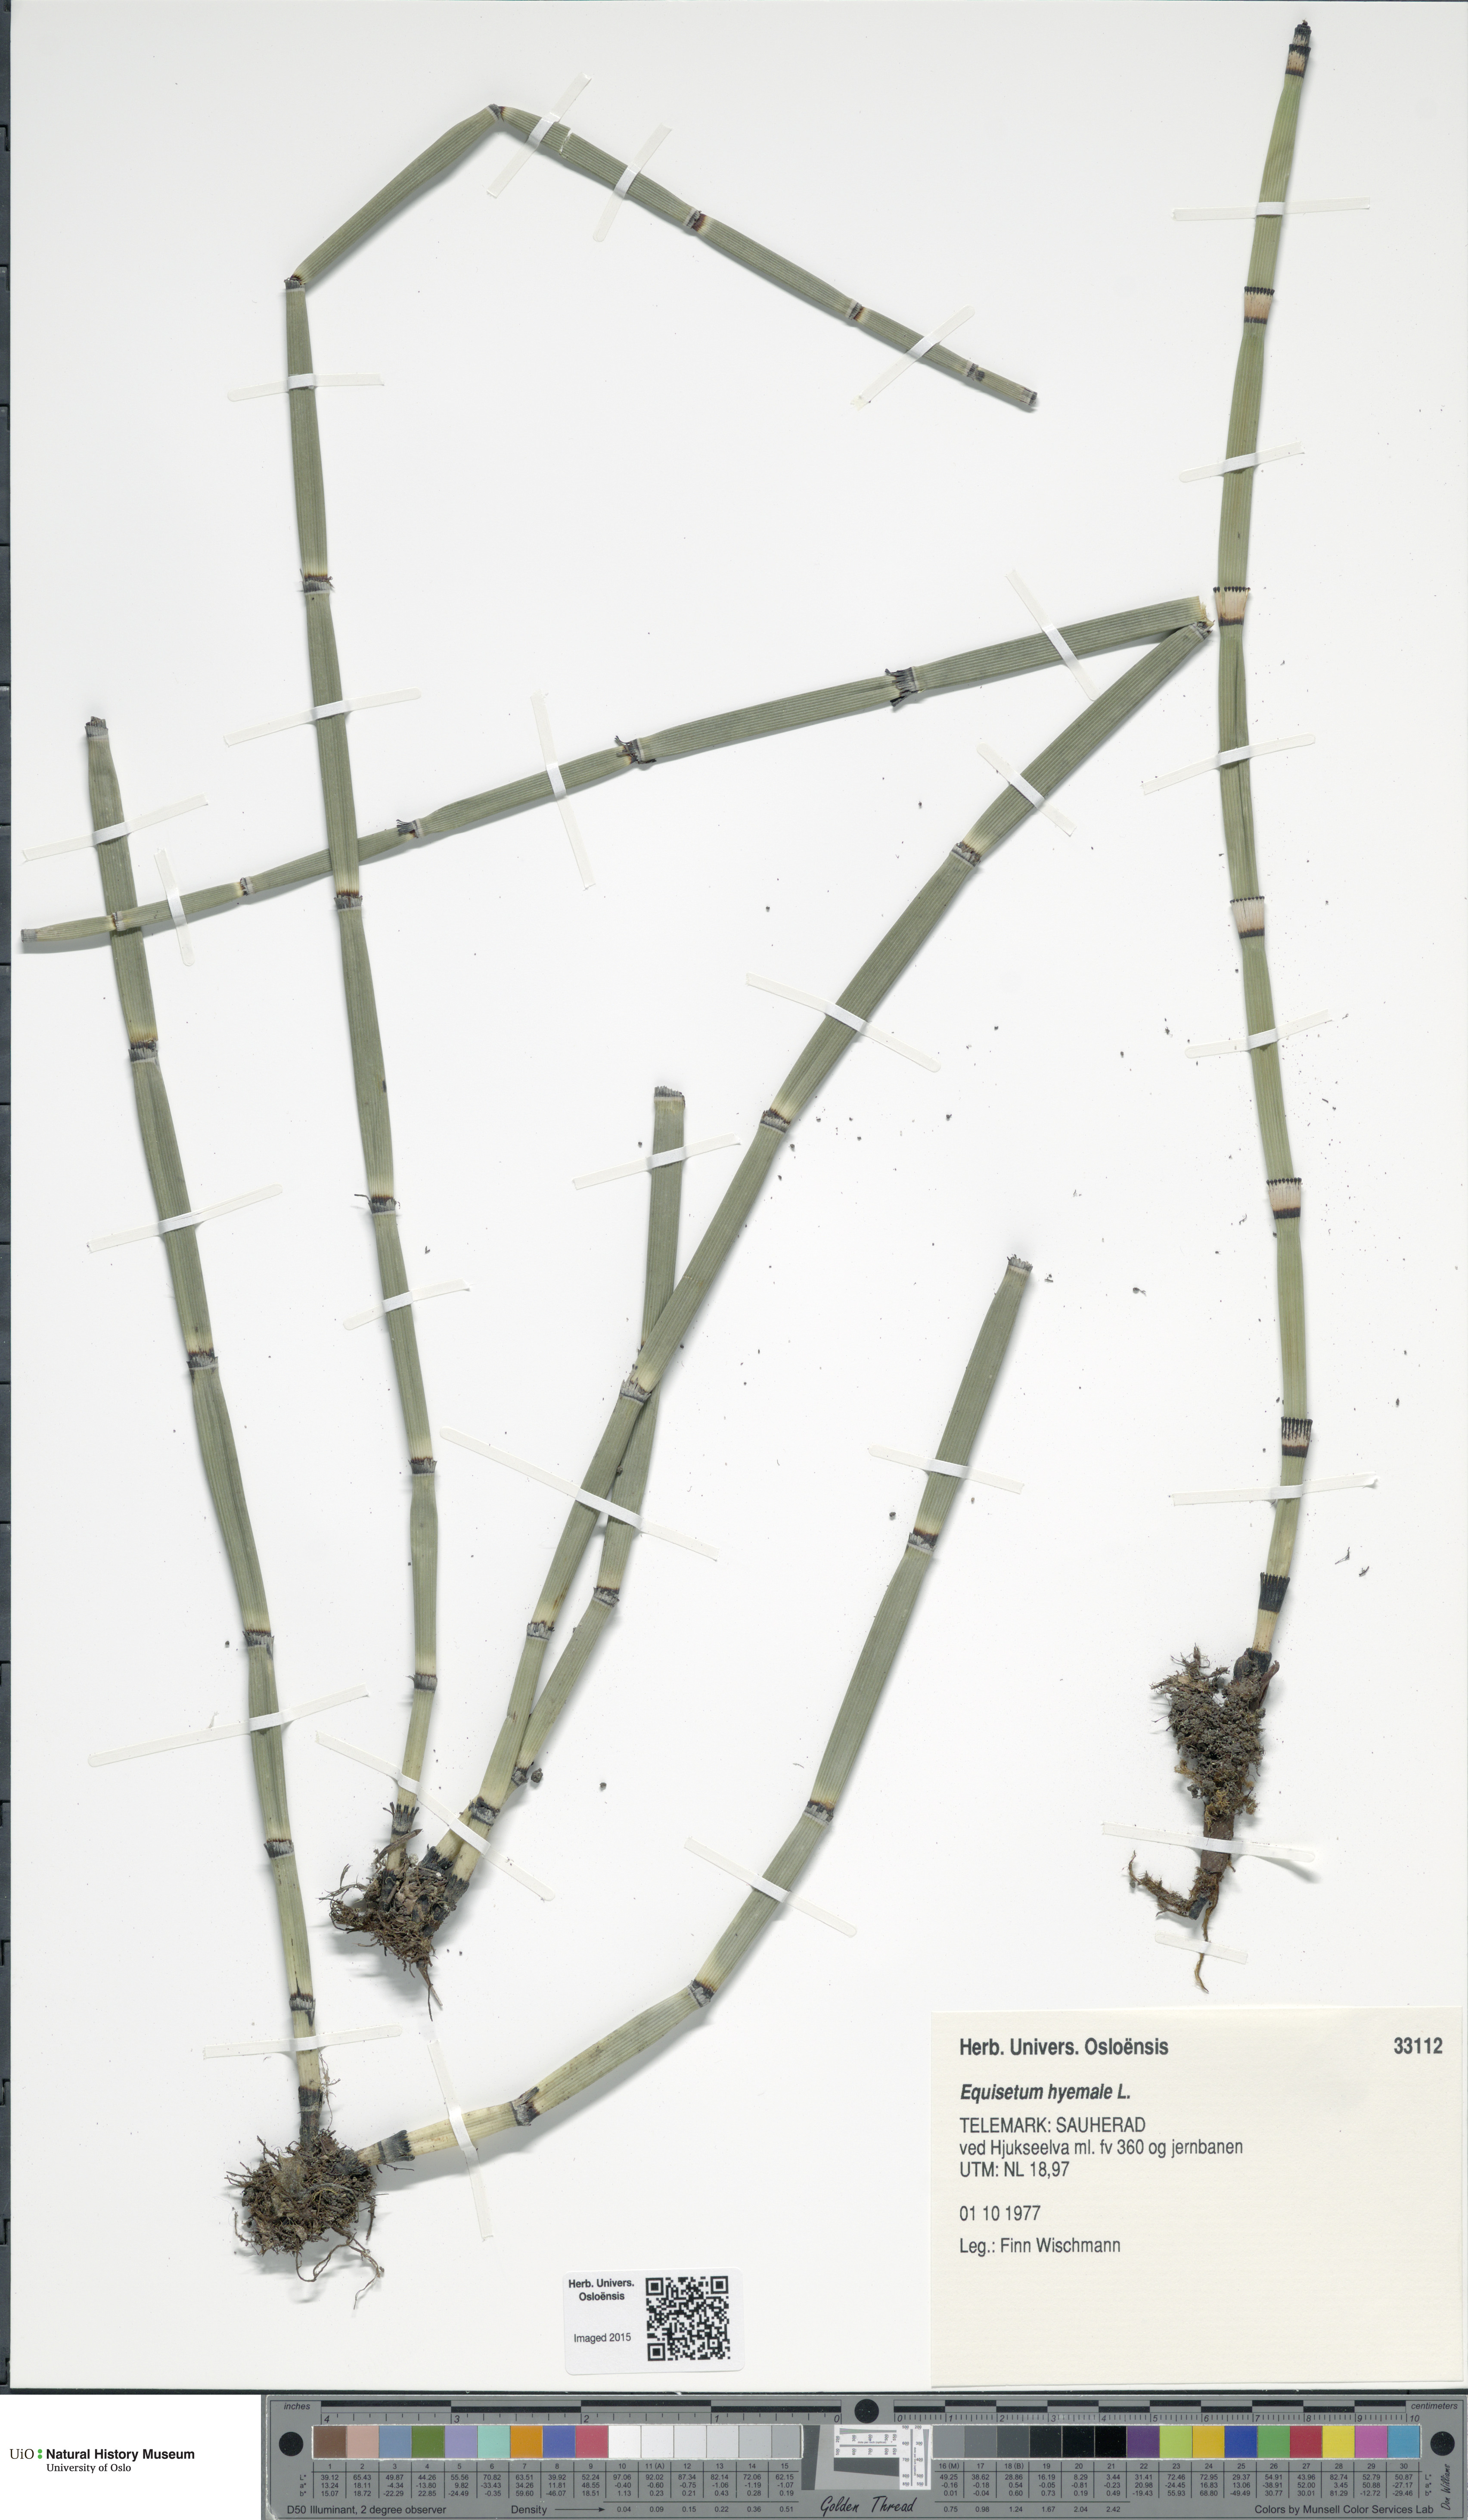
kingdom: Plantae
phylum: Tracheophyta
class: Polypodiopsida
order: Equisetales
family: Equisetaceae
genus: Equisetum
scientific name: Equisetum hyemale
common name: Rough horsetail
